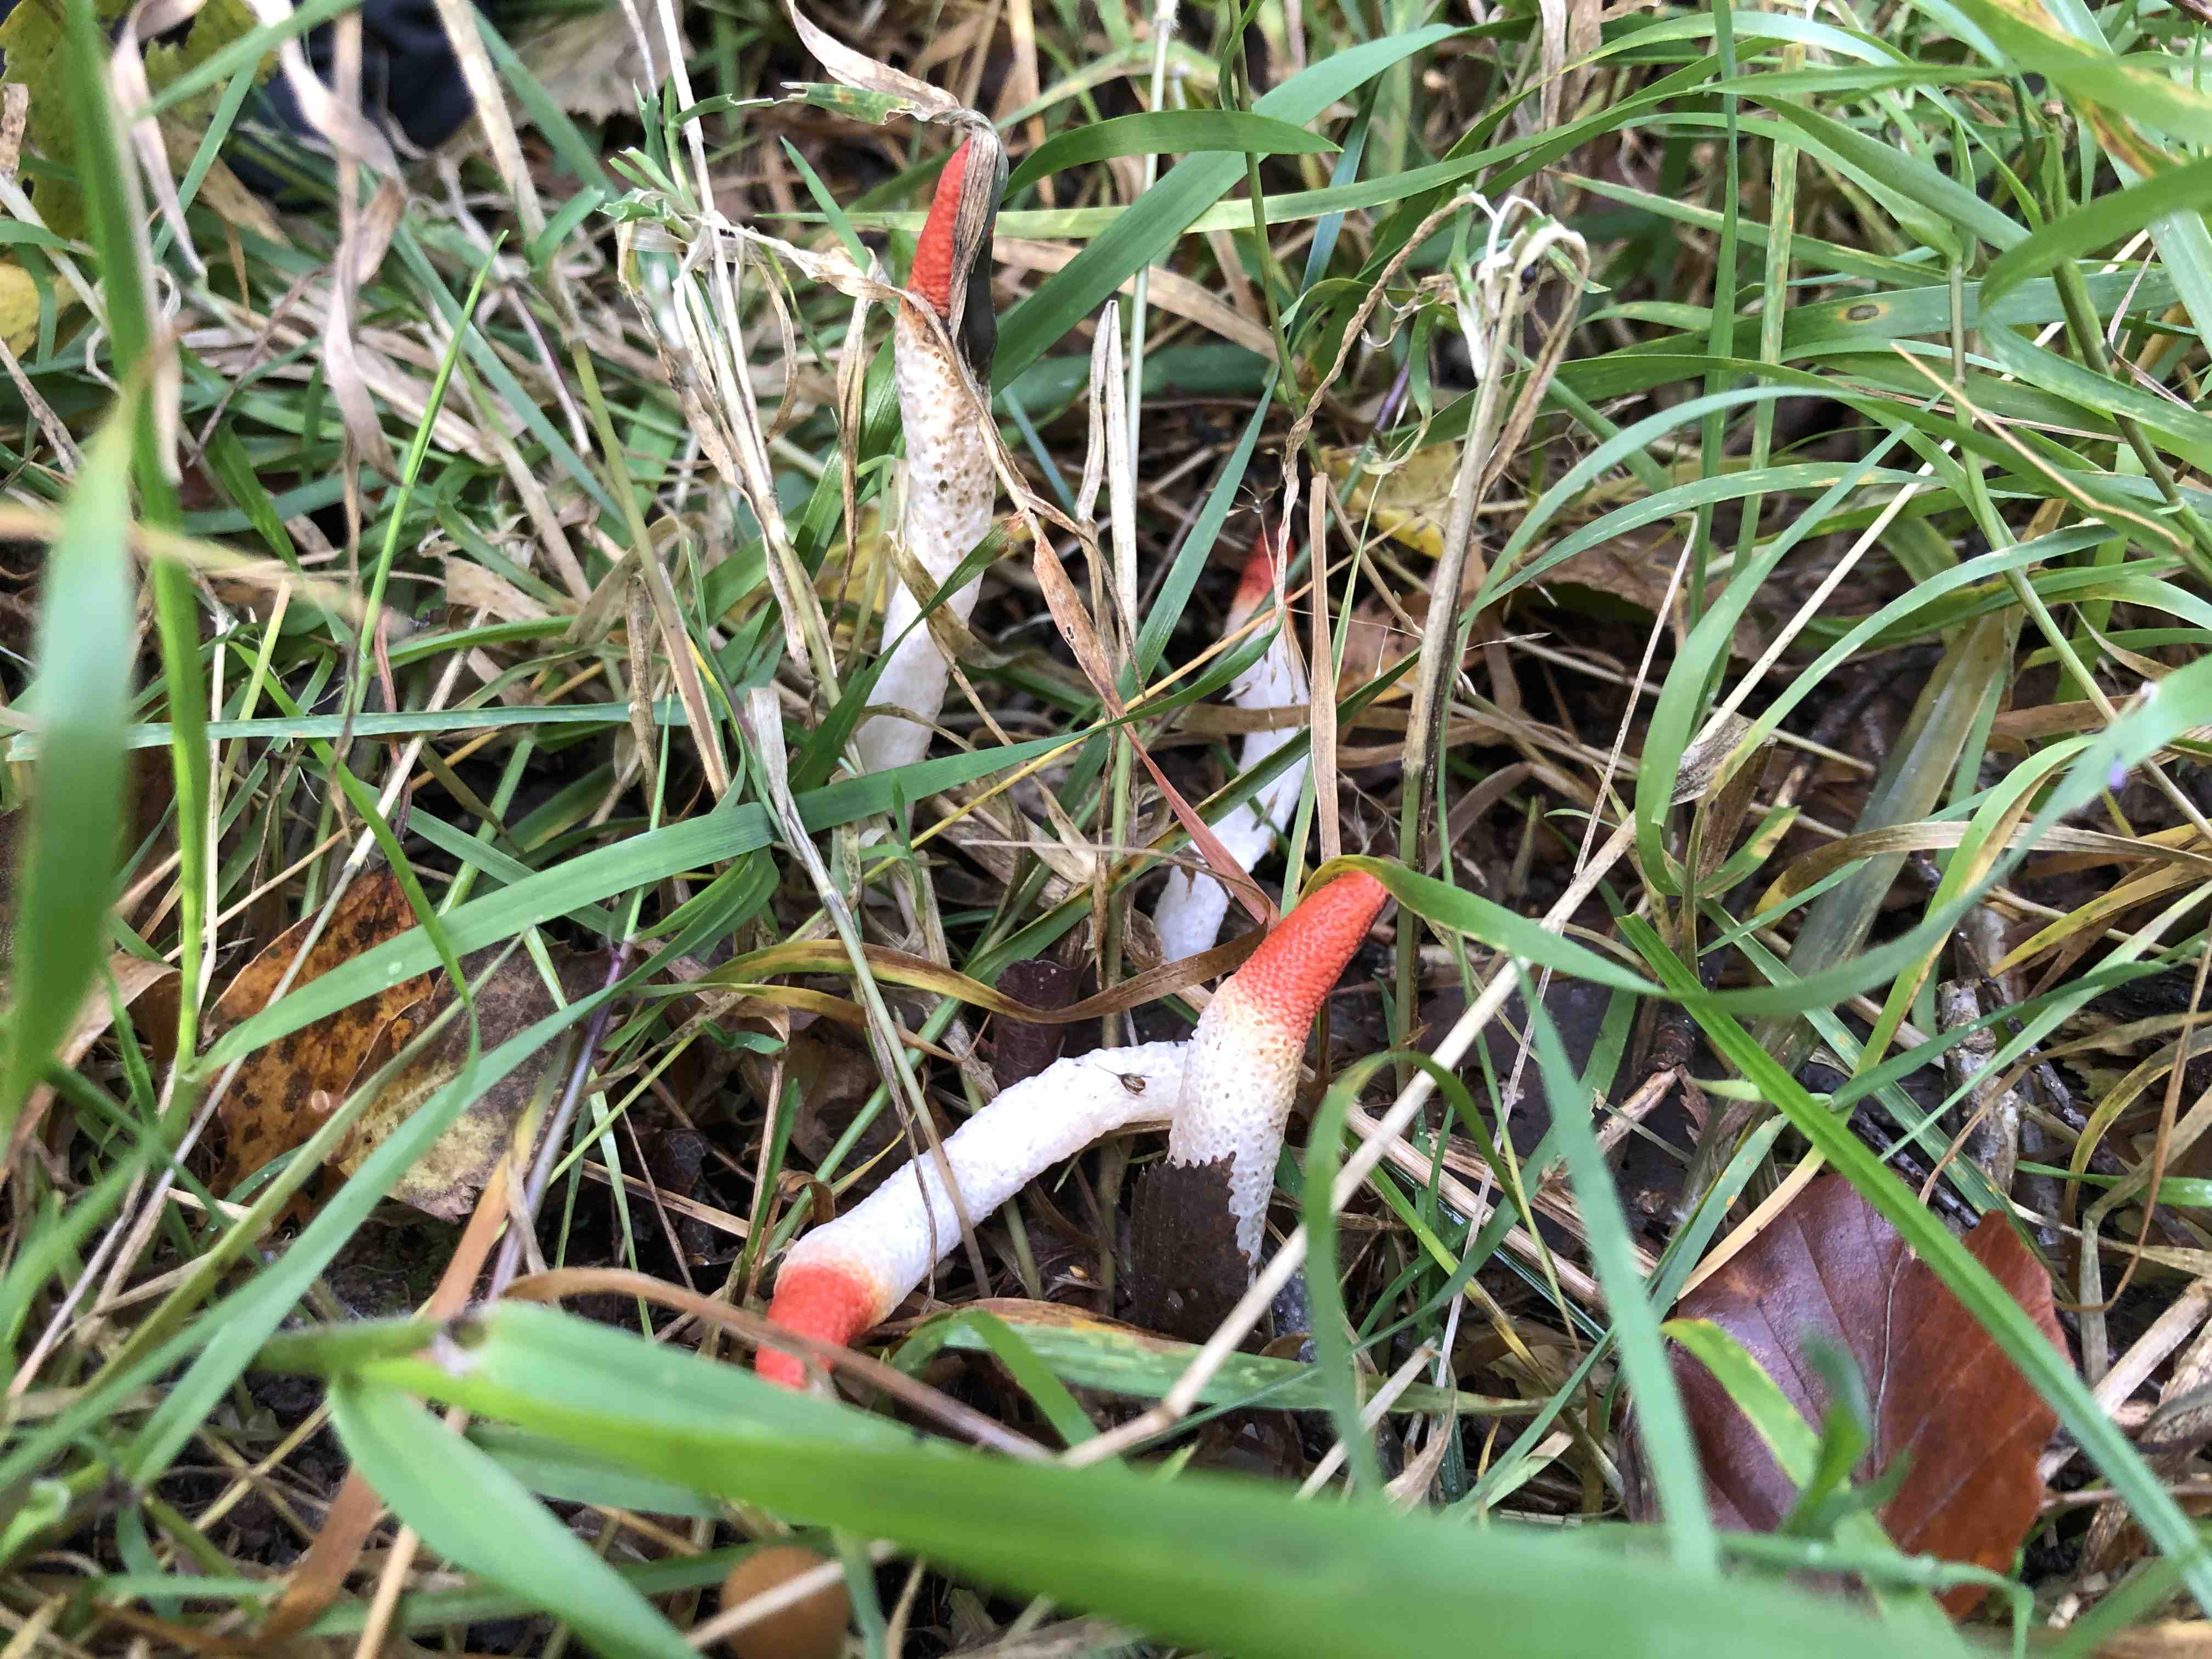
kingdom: Fungi
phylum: Basidiomycota
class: Agaricomycetes
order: Phallales
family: Phallaceae
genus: Mutinus
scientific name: Mutinus ravenelii
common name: rød stinksvamp
